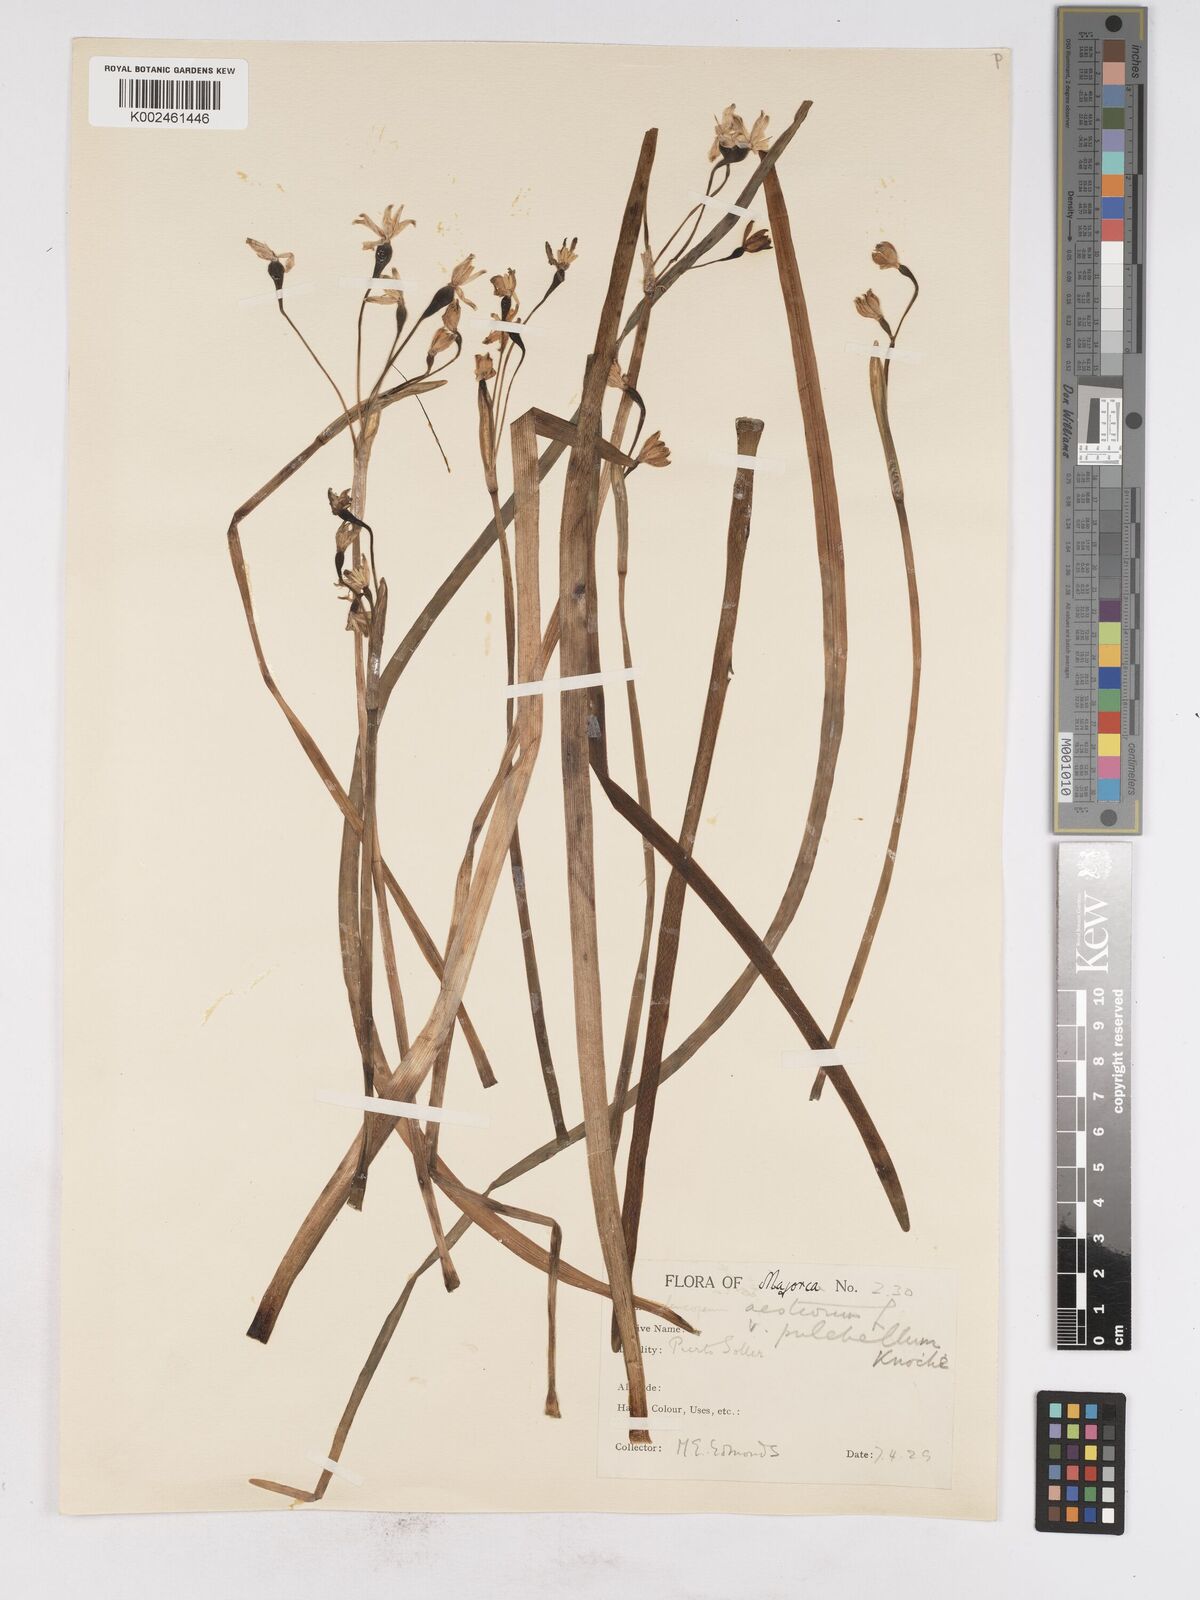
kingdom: Plantae
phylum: Tracheophyta
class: Liliopsida
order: Asparagales
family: Amaryllidaceae
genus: Leucojum
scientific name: Leucojum aestivum
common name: Summer snowflake
